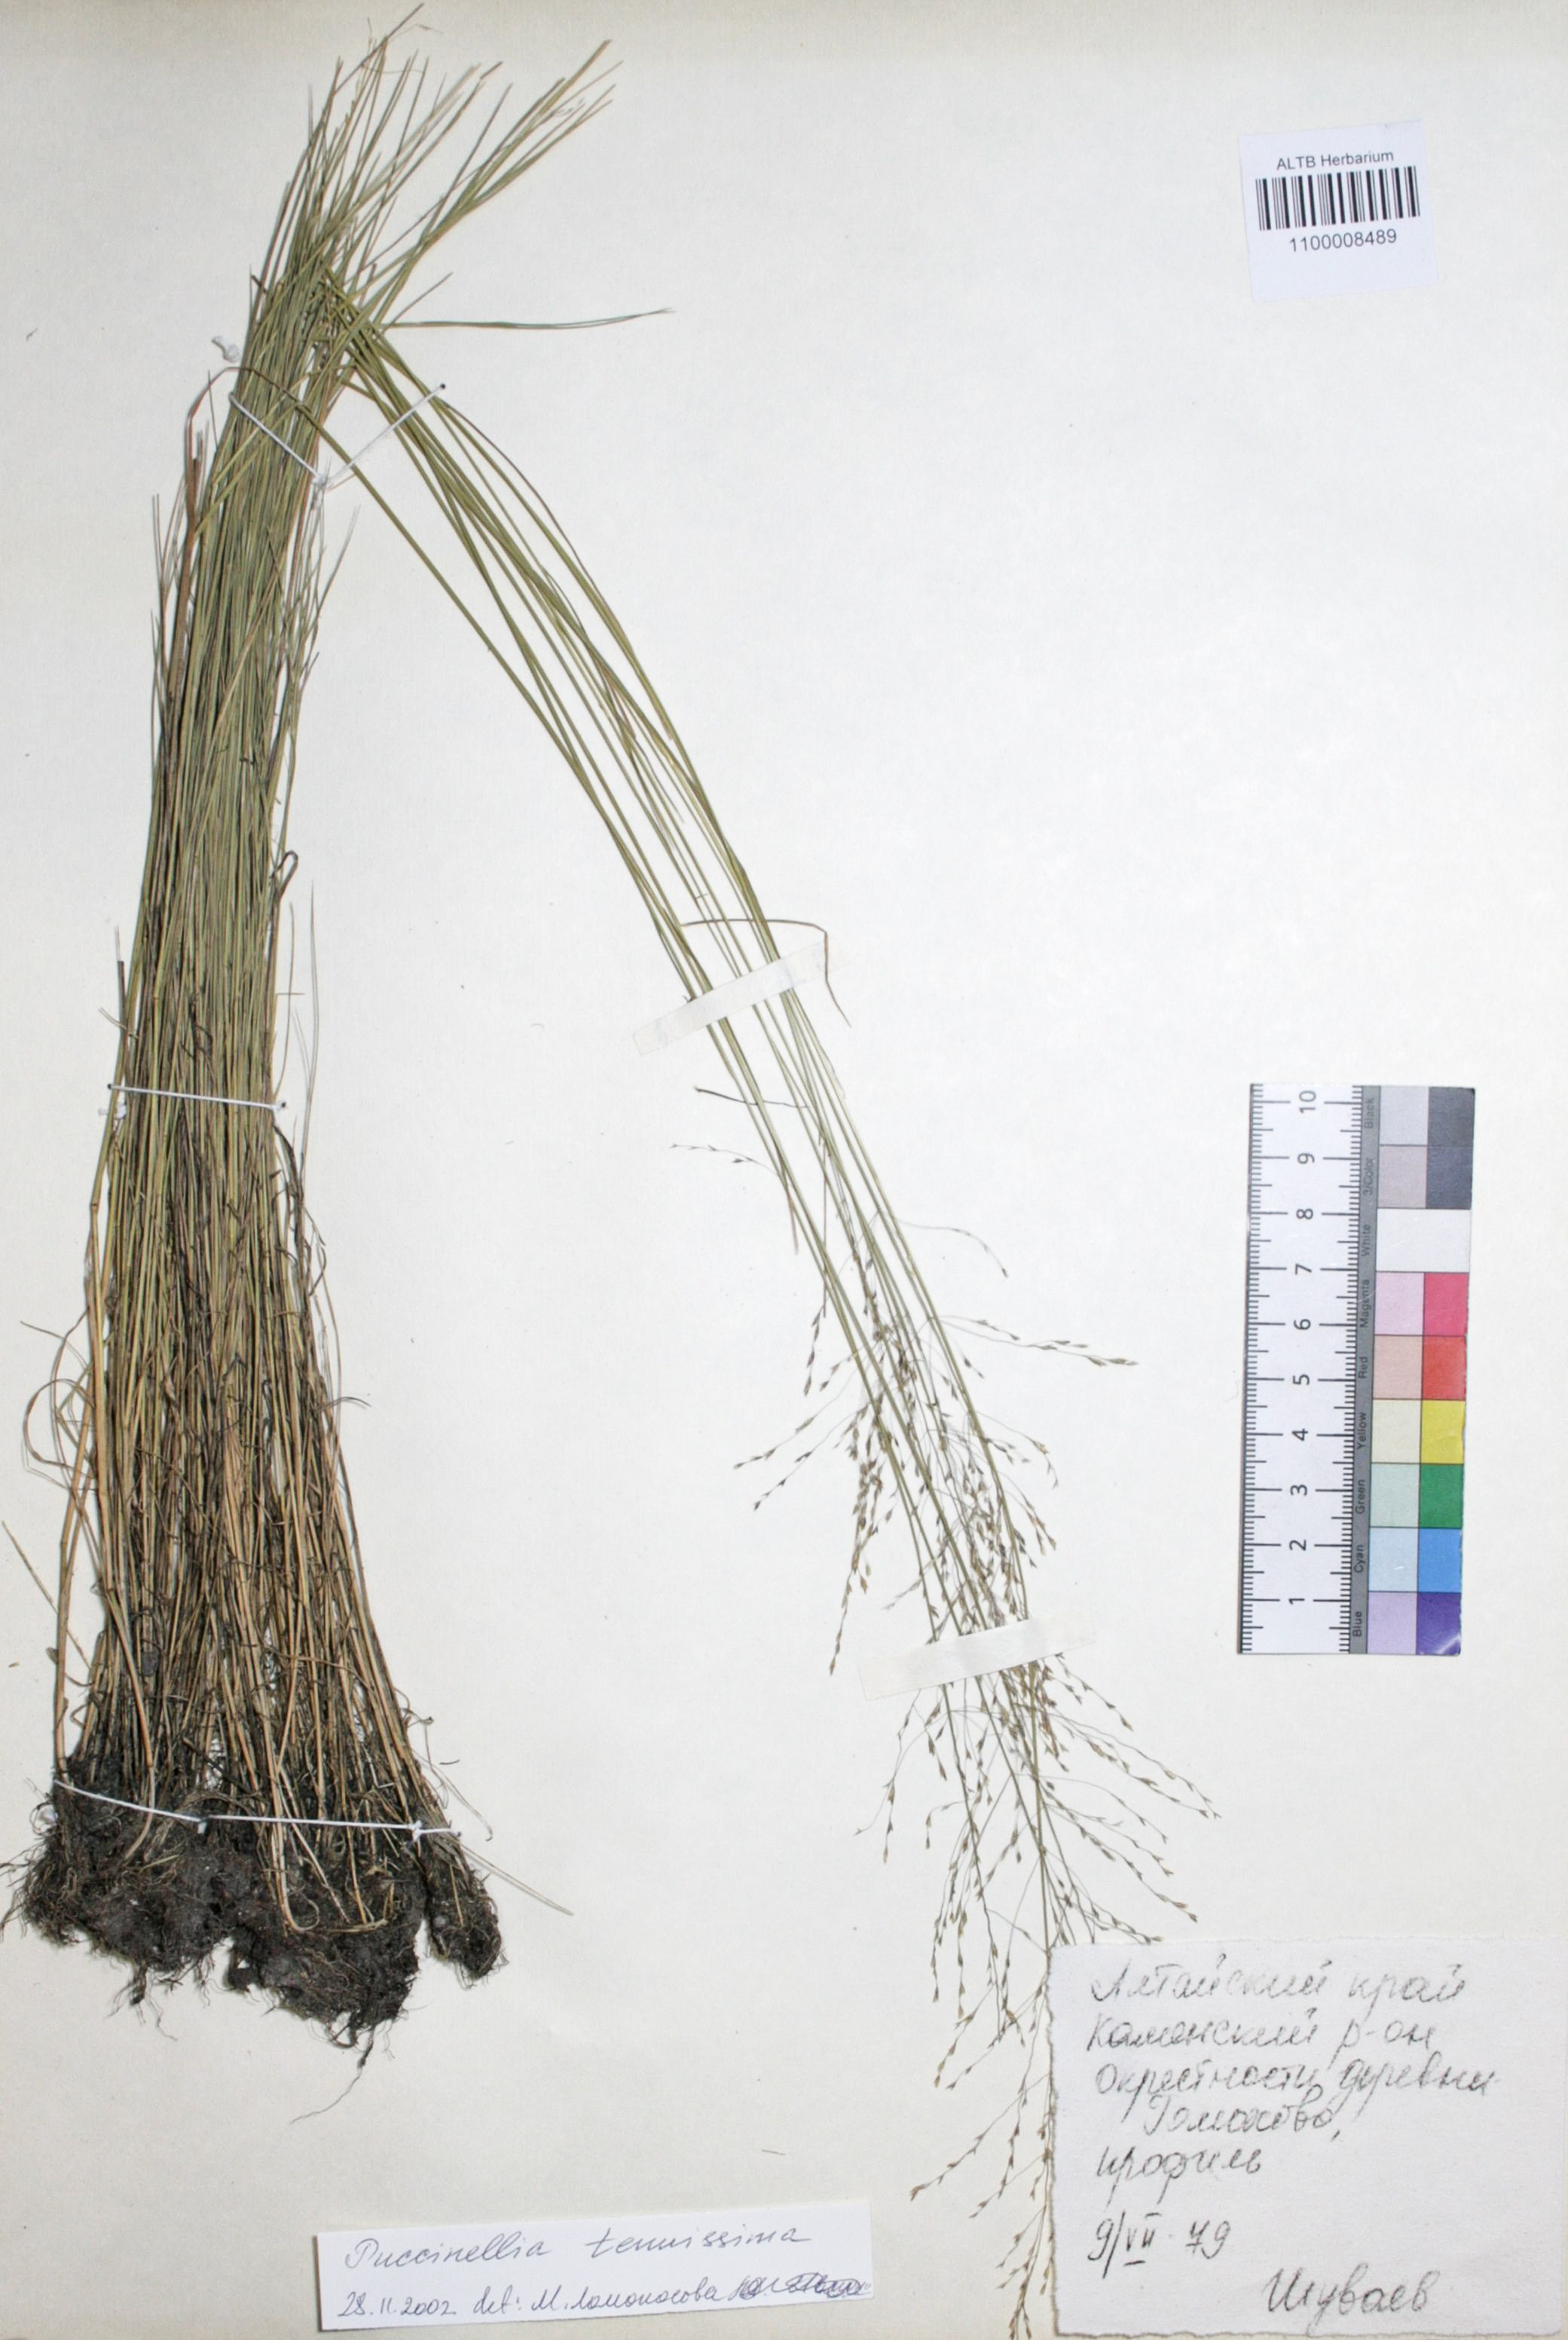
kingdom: Plantae
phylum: Tracheophyta
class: Liliopsida
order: Poales
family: Poaceae
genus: Puccinellia
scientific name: Puccinellia tenuiflora
